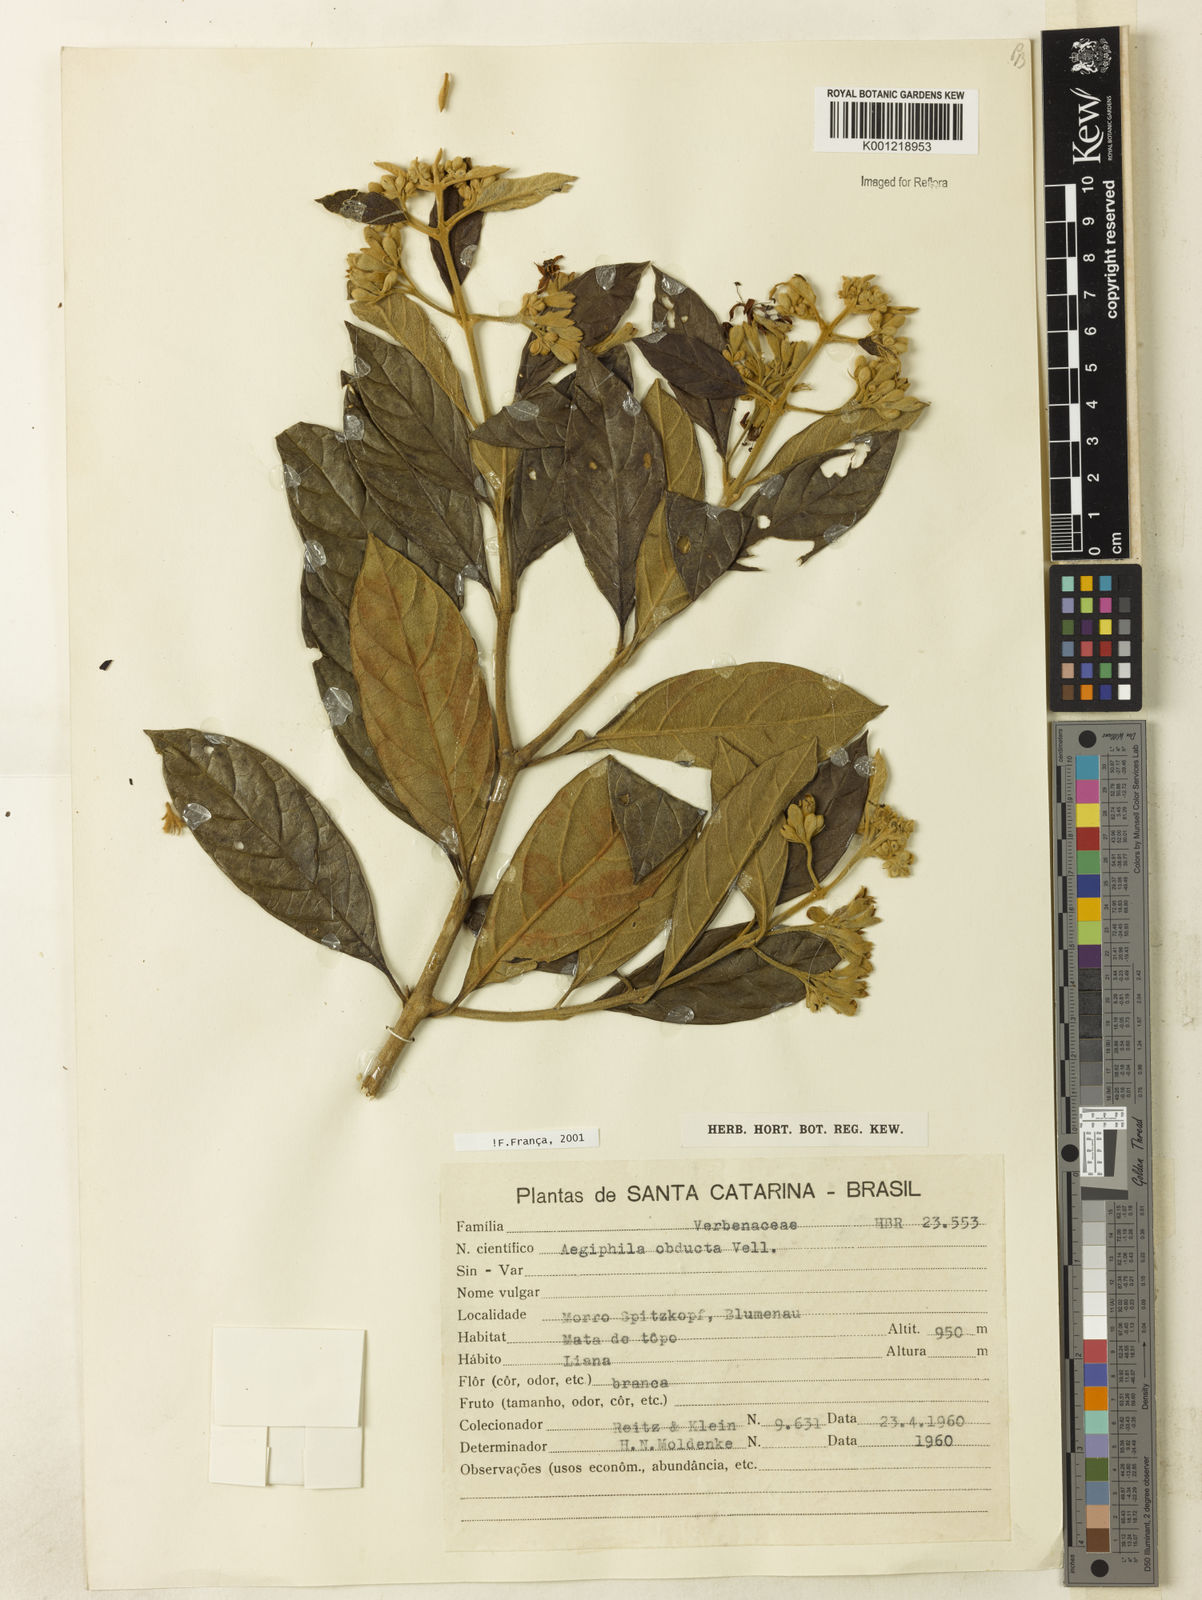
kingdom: Plantae
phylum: Tracheophyta
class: Magnoliopsida
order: Lamiales
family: Lamiaceae
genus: Aegiphila
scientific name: Aegiphila obducta
